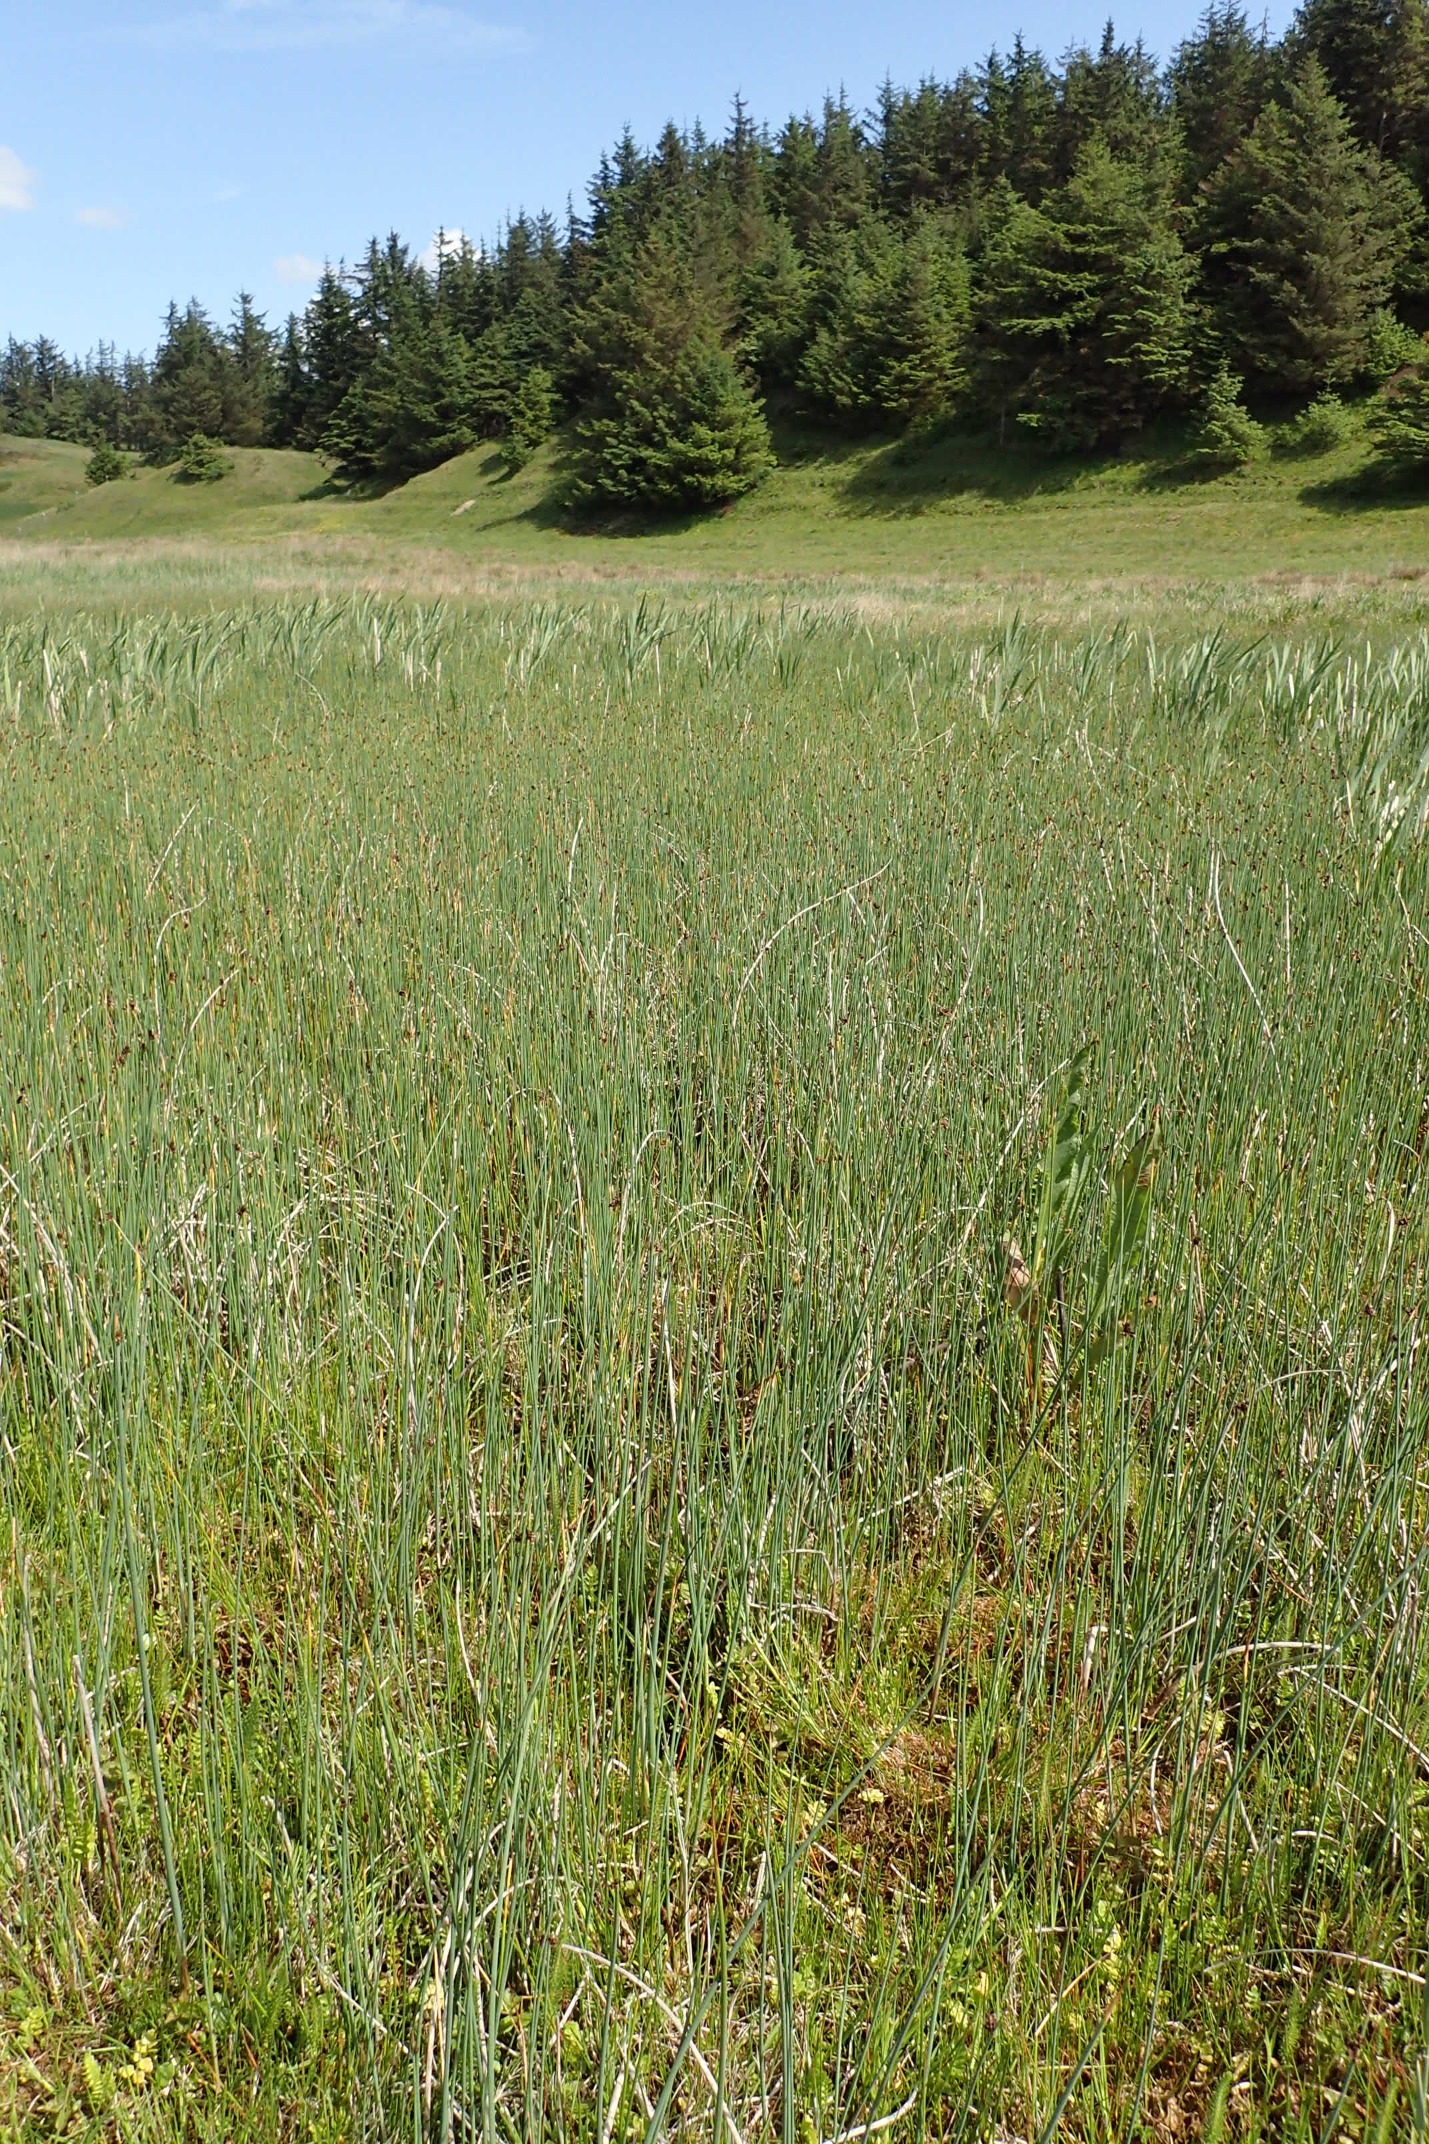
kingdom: Plantae
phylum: Tracheophyta
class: Liliopsida
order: Poales
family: Cyperaceae
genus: Schoenoplectus
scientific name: Schoenoplectus tabernaemontani
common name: Blågrøn kogleaks
